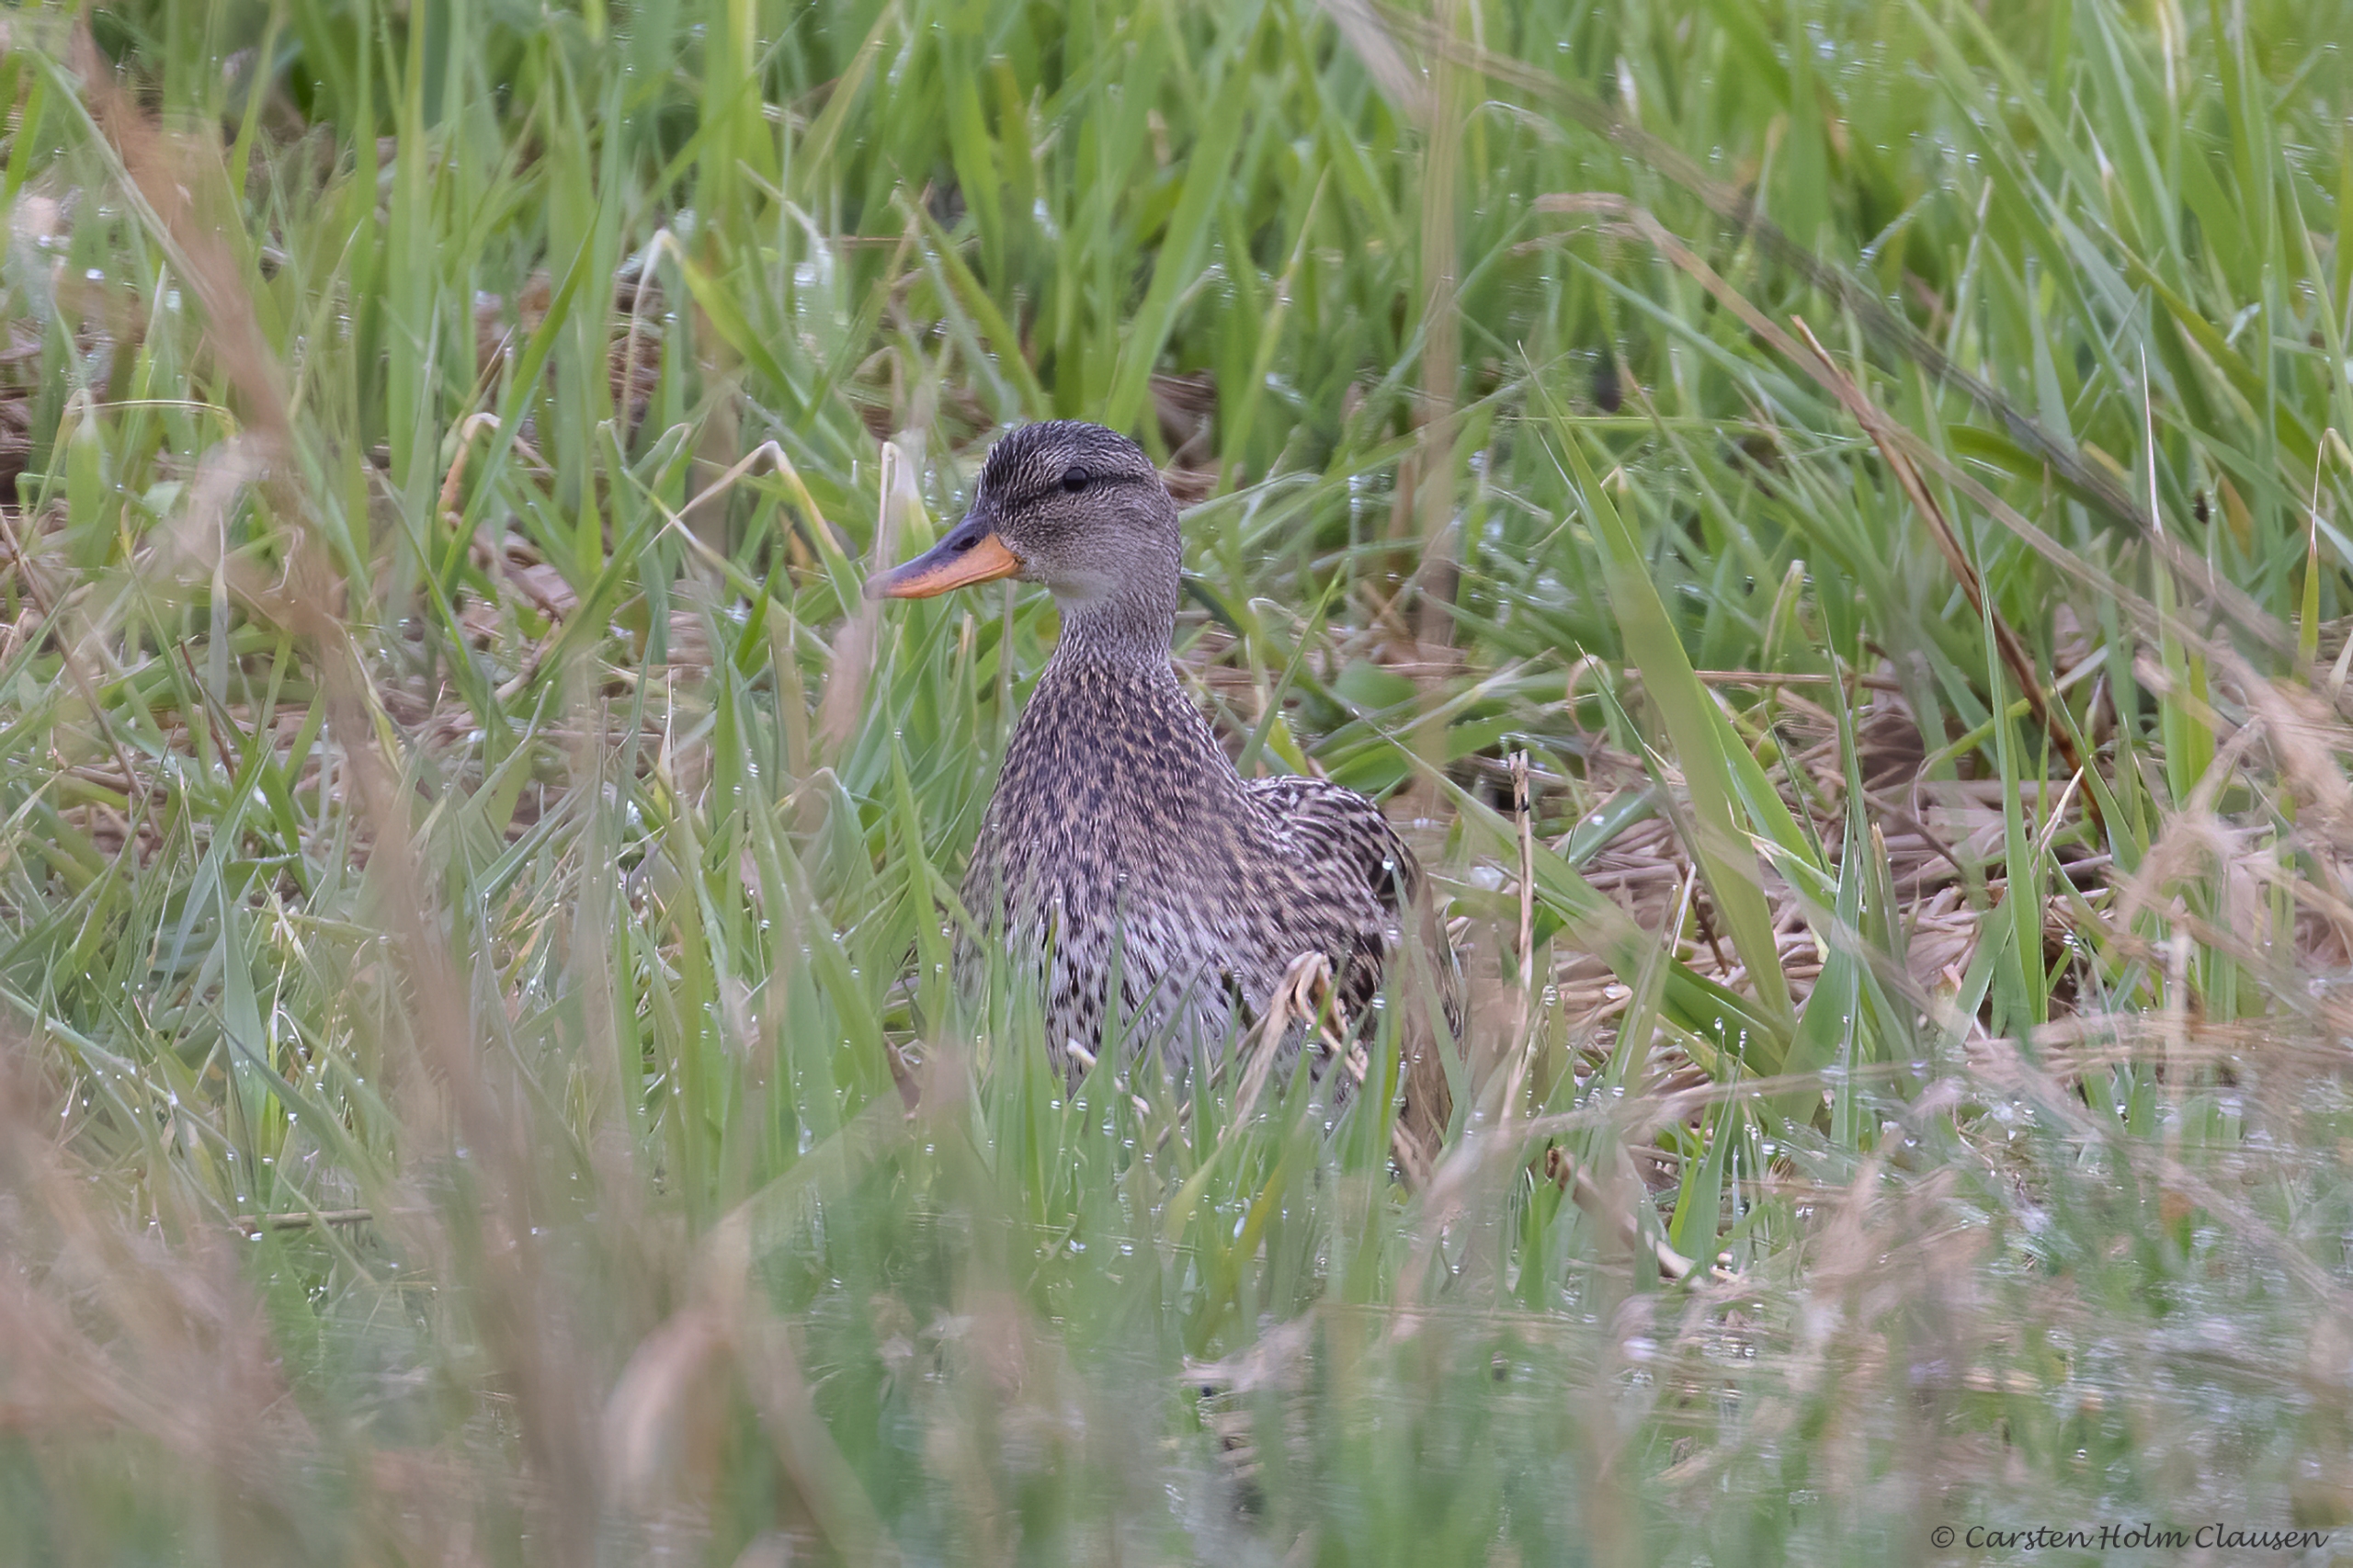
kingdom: Animalia
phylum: Chordata
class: Aves
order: Anseriformes
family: Anatidae
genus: Mareca
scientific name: Mareca strepera
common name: Knarand
